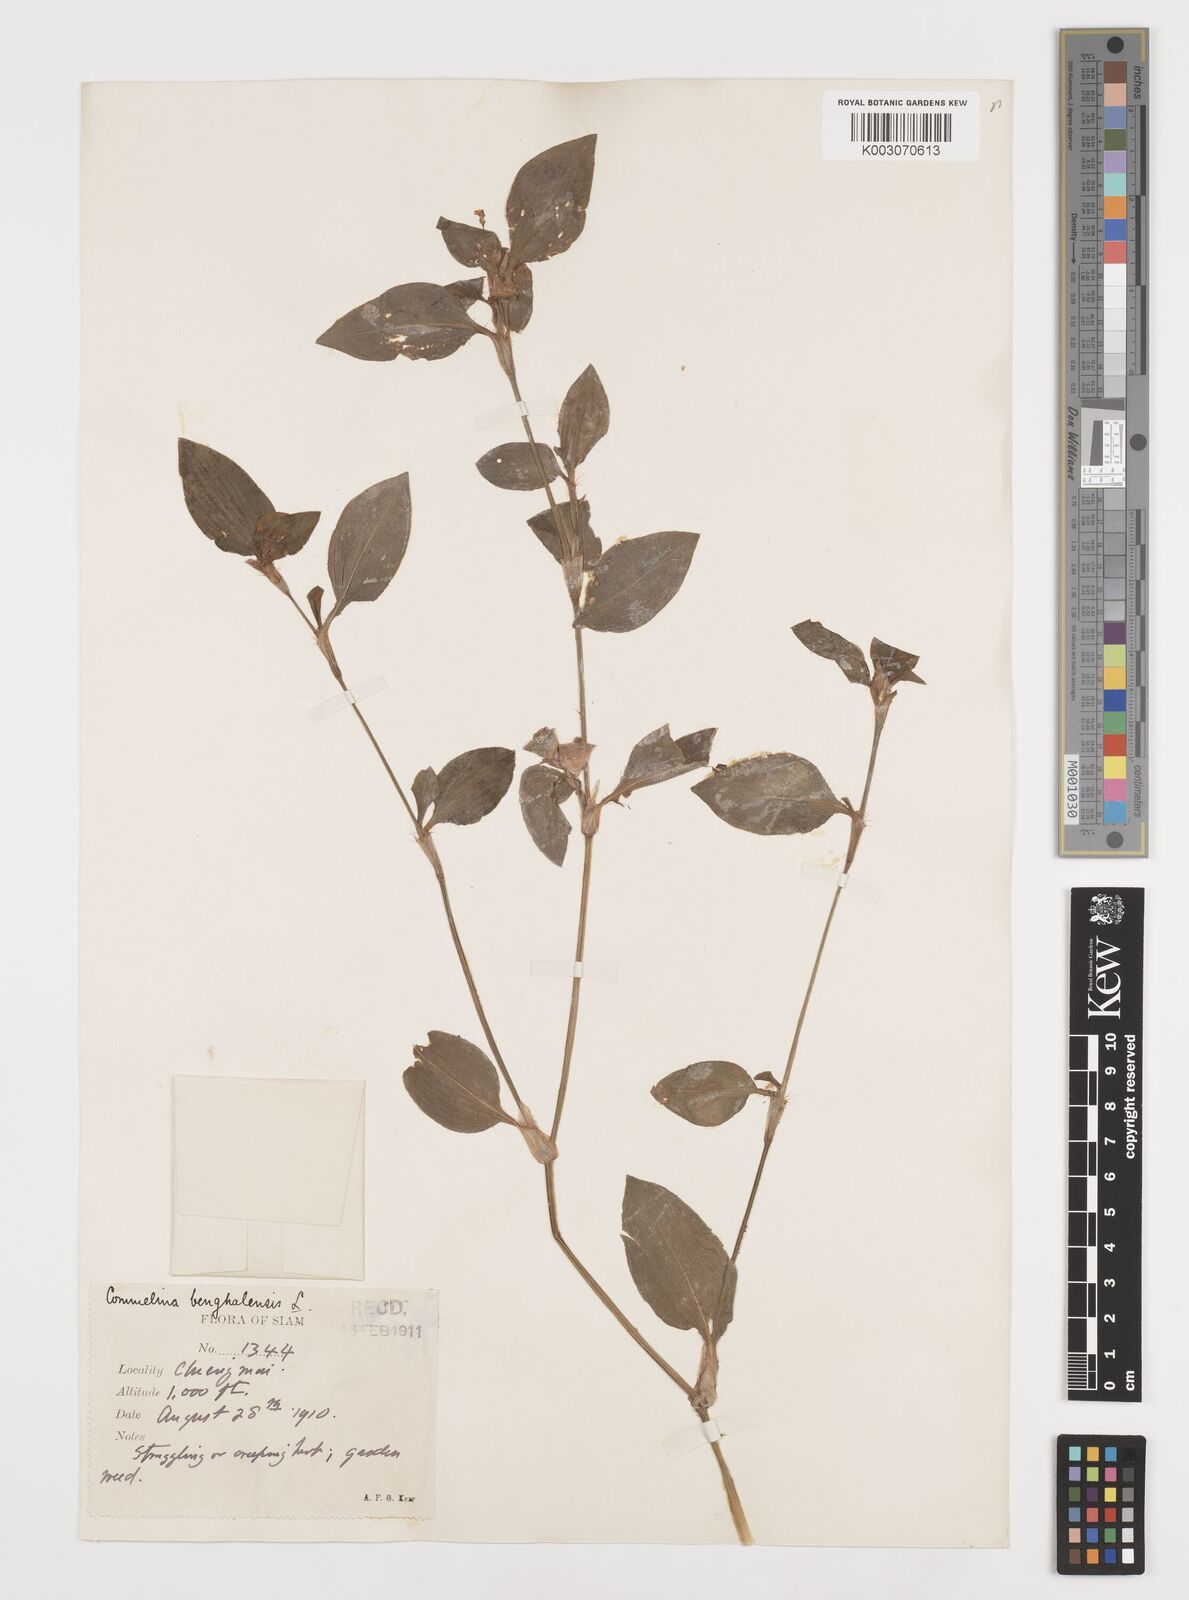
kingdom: Plantae
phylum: Tracheophyta
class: Liliopsida
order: Commelinales
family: Commelinaceae
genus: Commelina
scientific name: Commelina benghalensis
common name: Jio
